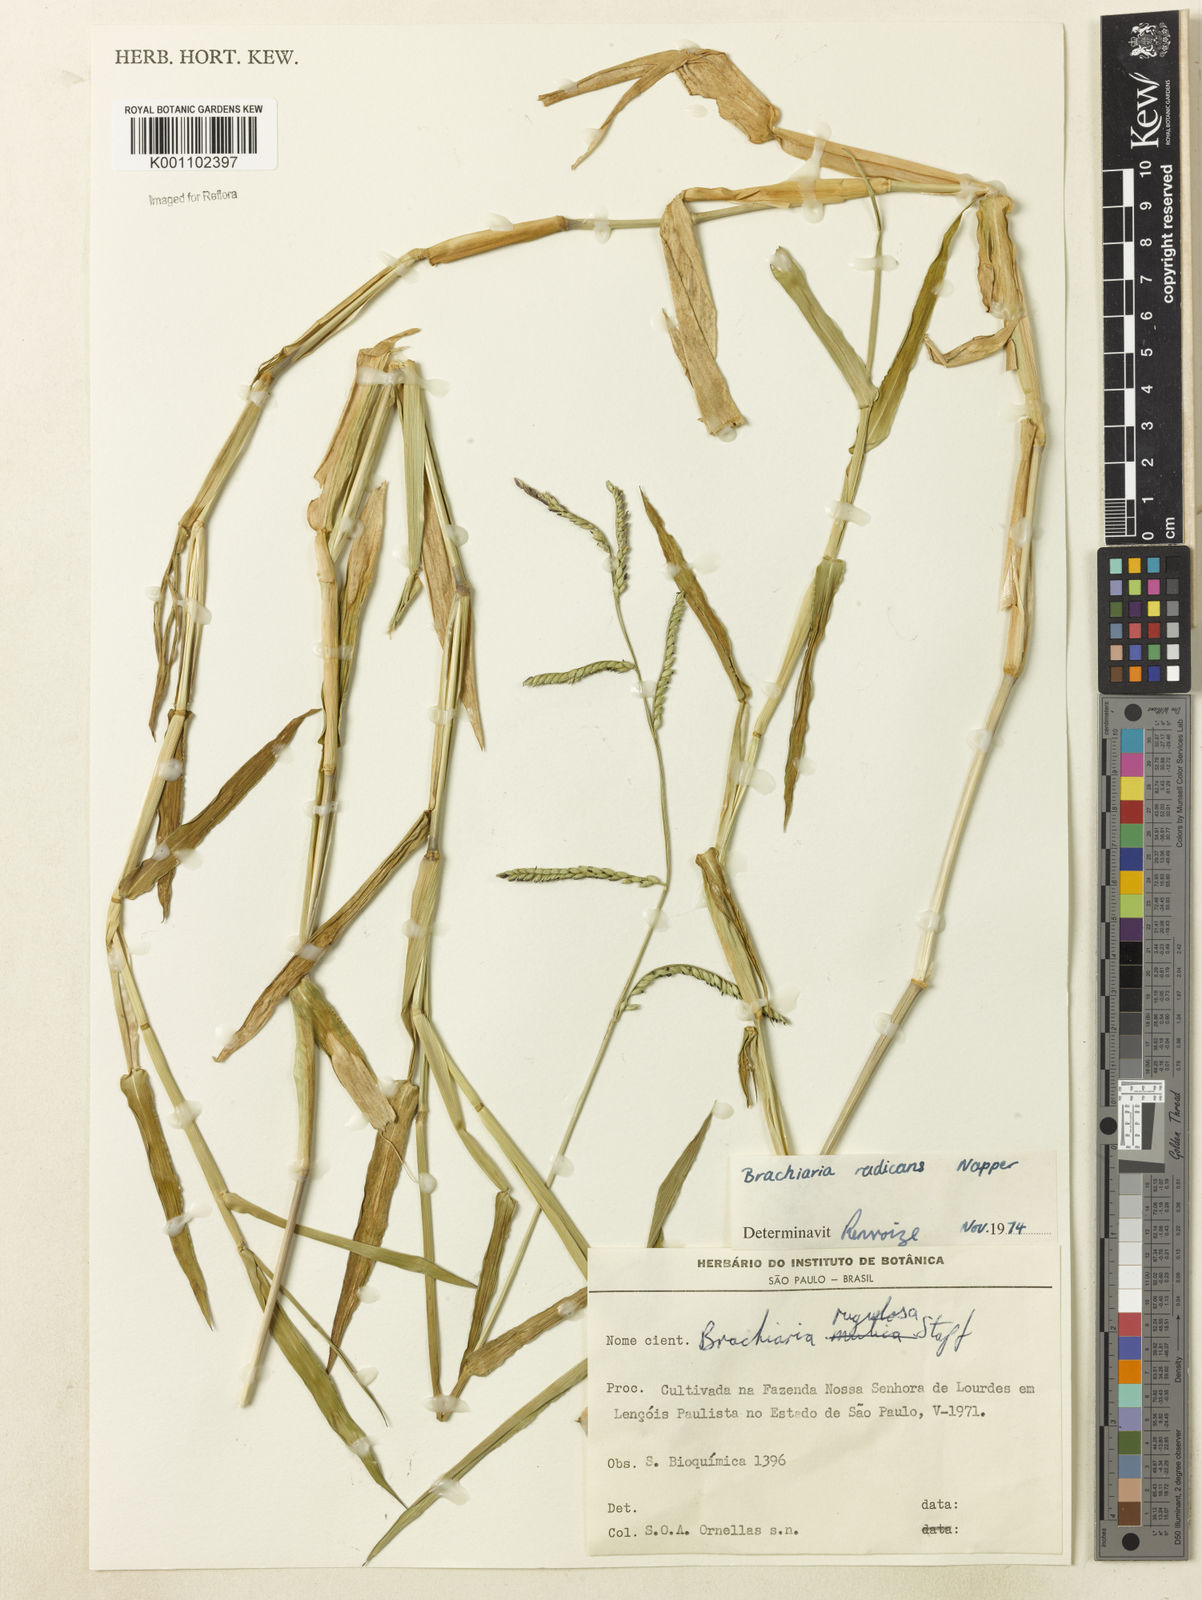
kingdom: Plantae
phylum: Tracheophyta
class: Liliopsida
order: Poales
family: Poaceae
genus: Urochloa
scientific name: Urochloa arrecta
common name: African signalgrass
